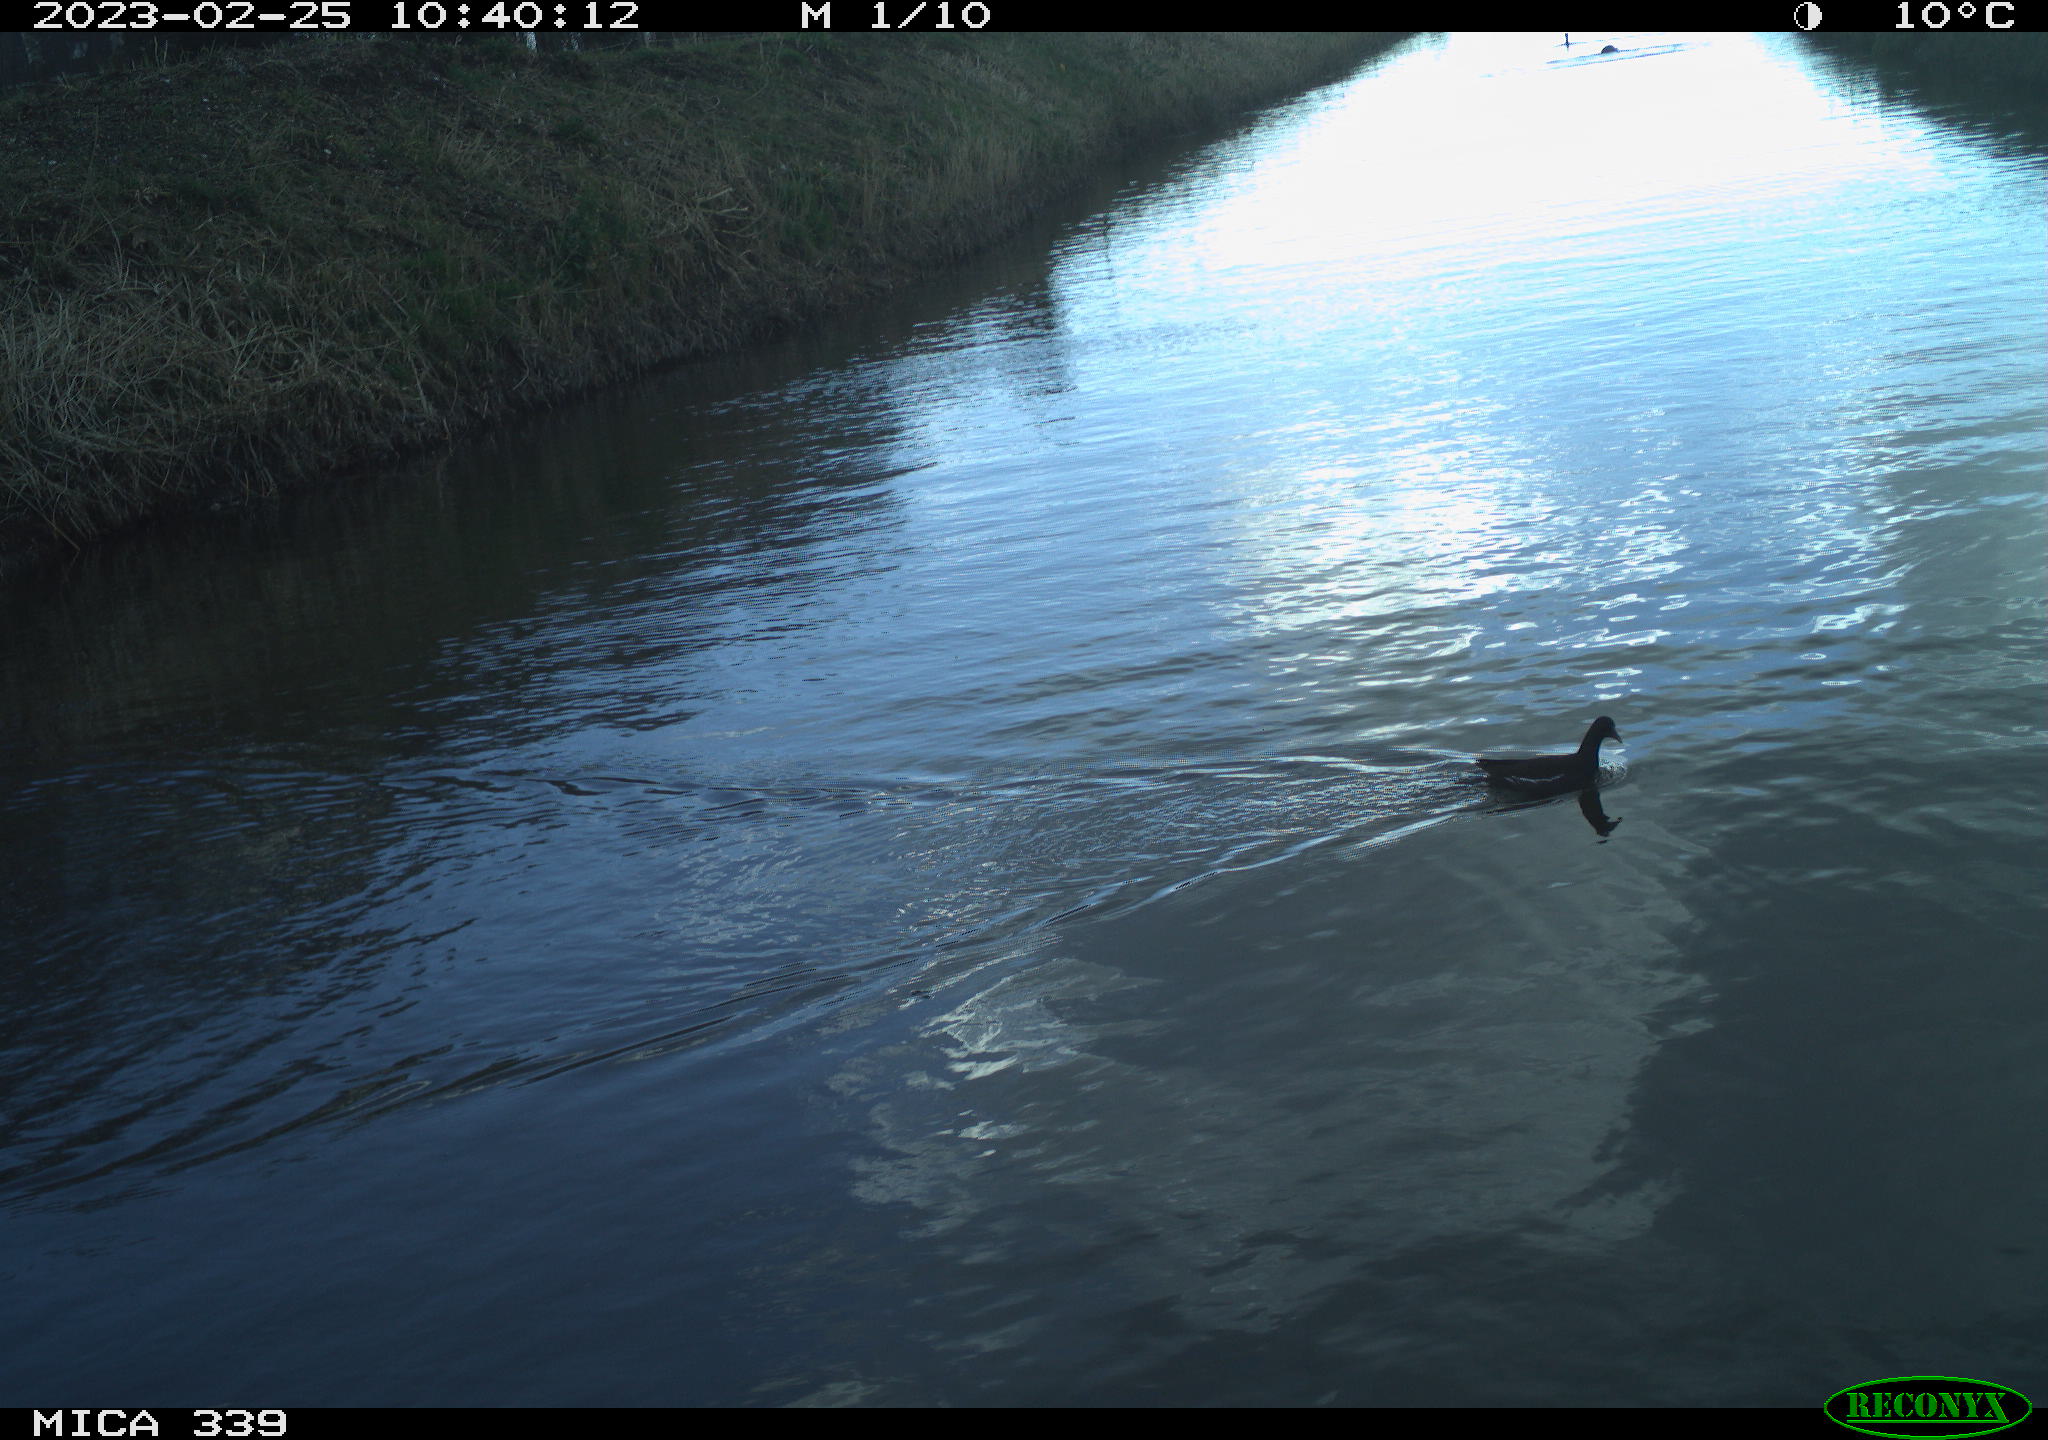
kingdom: Animalia
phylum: Chordata
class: Aves
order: Suliformes
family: Phalacrocoracidae
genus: Phalacrocorax
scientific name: Phalacrocorax carbo
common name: Great cormorant
